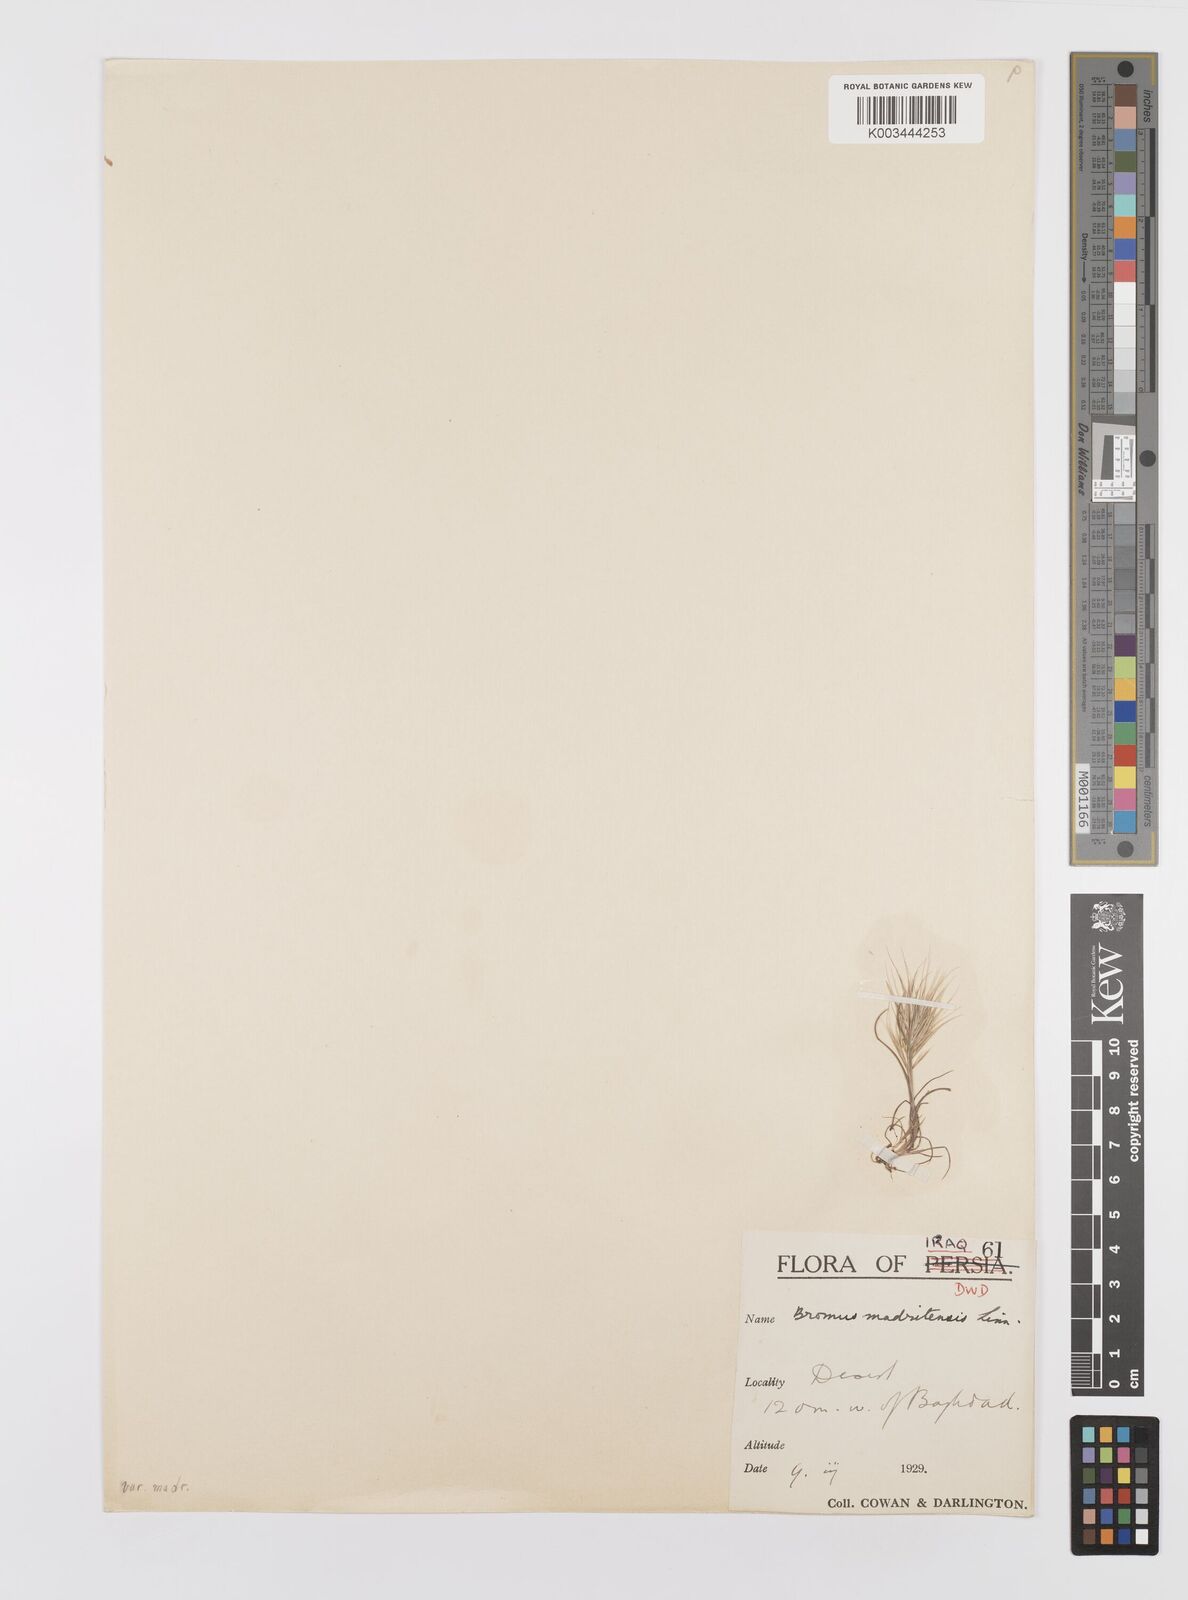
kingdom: Plantae
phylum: Tracheophyta
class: Liliopsida
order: Poales
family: Poaceae
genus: Bromus
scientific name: Bromus madritensis
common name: Compact brome
